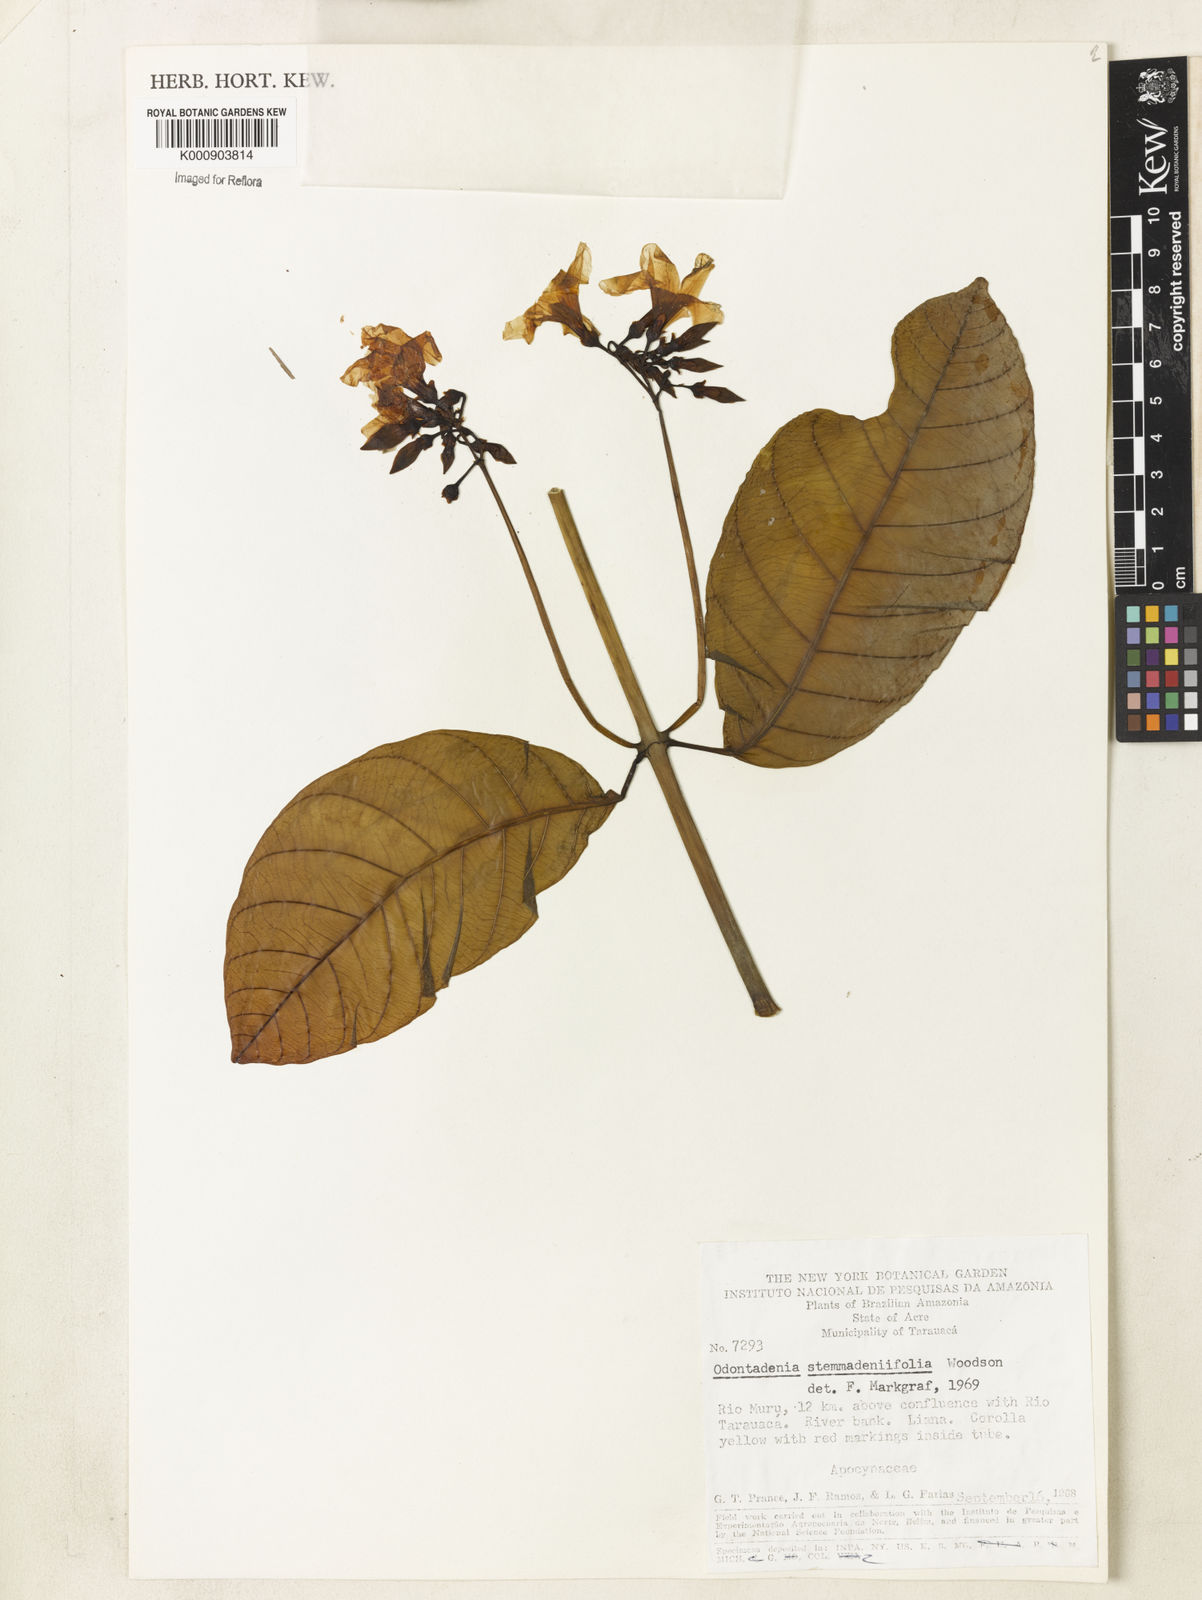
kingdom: Plantae
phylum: Tracheophyta
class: Magnoliopsida
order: Gentianales
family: Apocynaceae
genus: Odontadenia
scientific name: Odontadenia stemmadeniifolia
